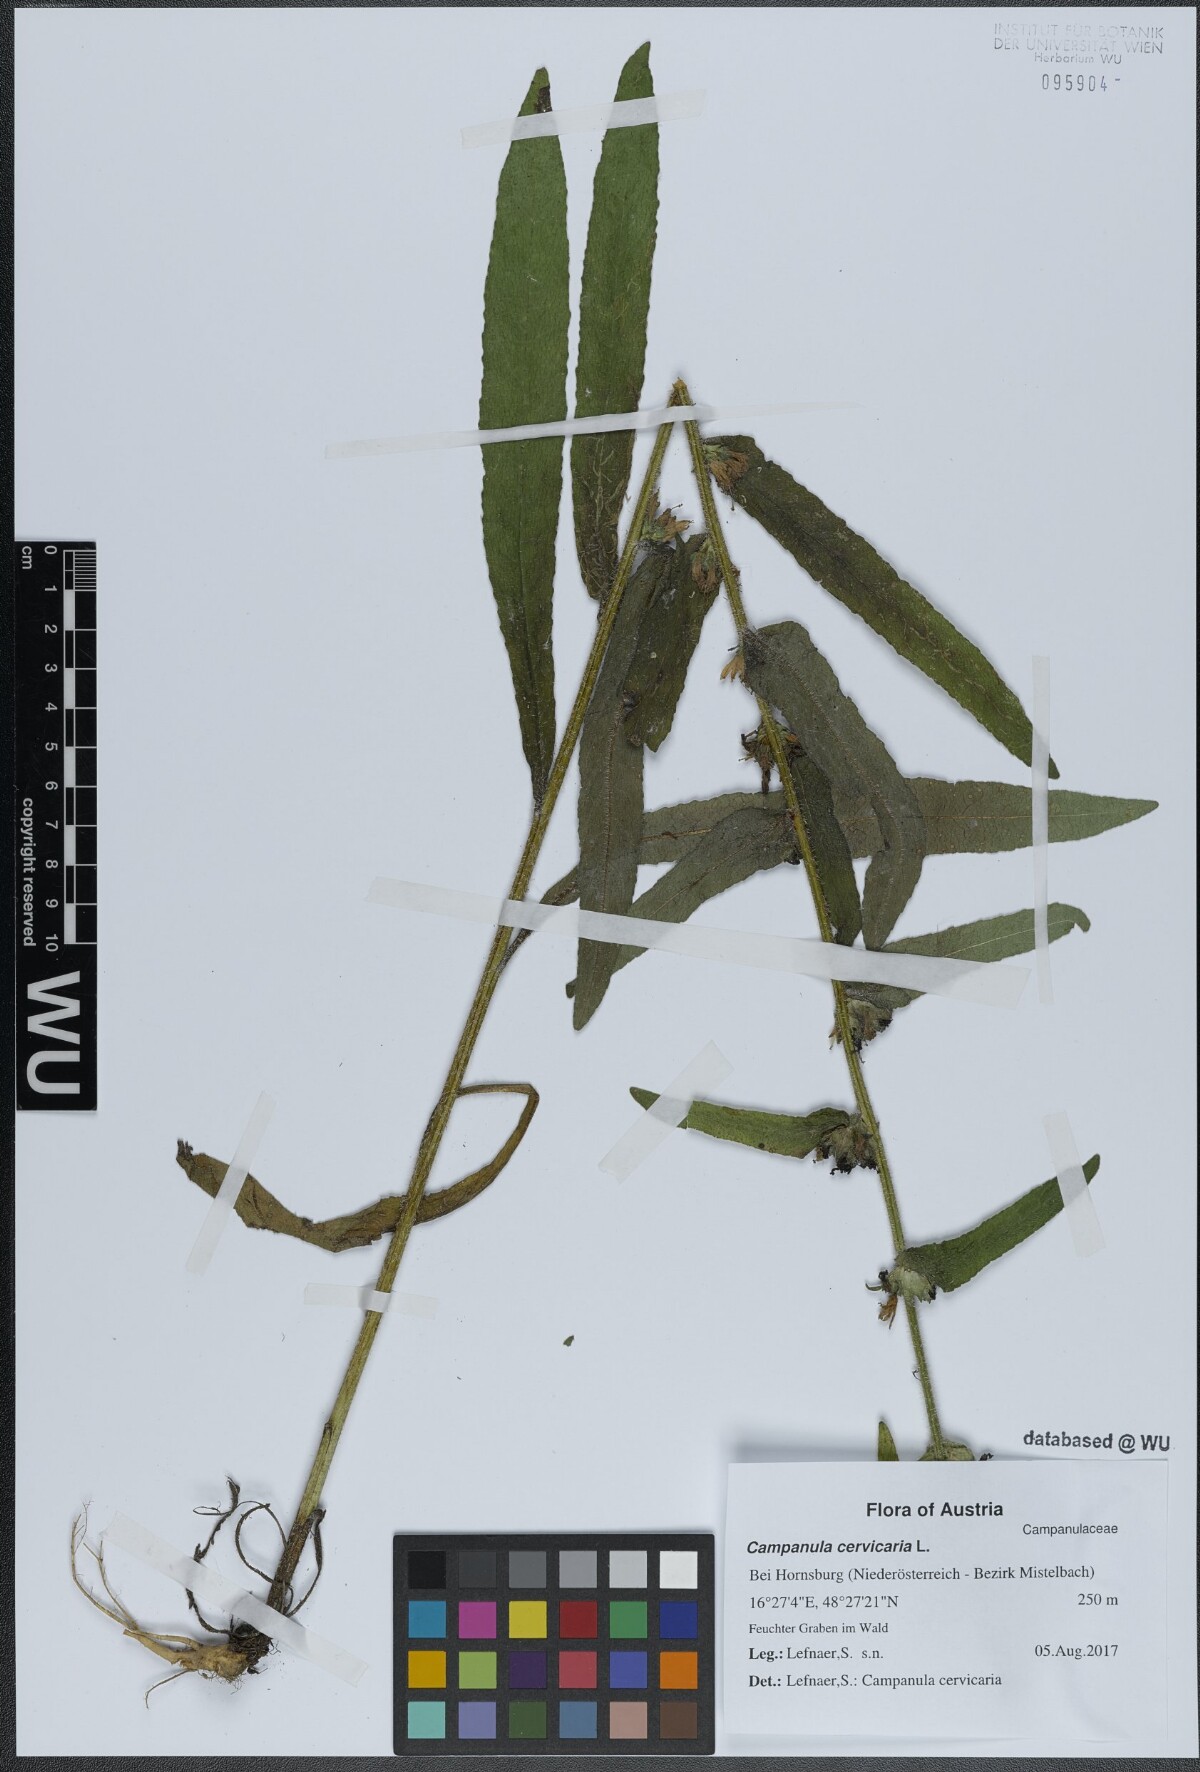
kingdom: Plantae
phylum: Tracheophyta
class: Magnoliopsida
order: Asterales
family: Campanulaceae
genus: Campanula
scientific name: Campanula cervicaria
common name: Bristly bellflower
